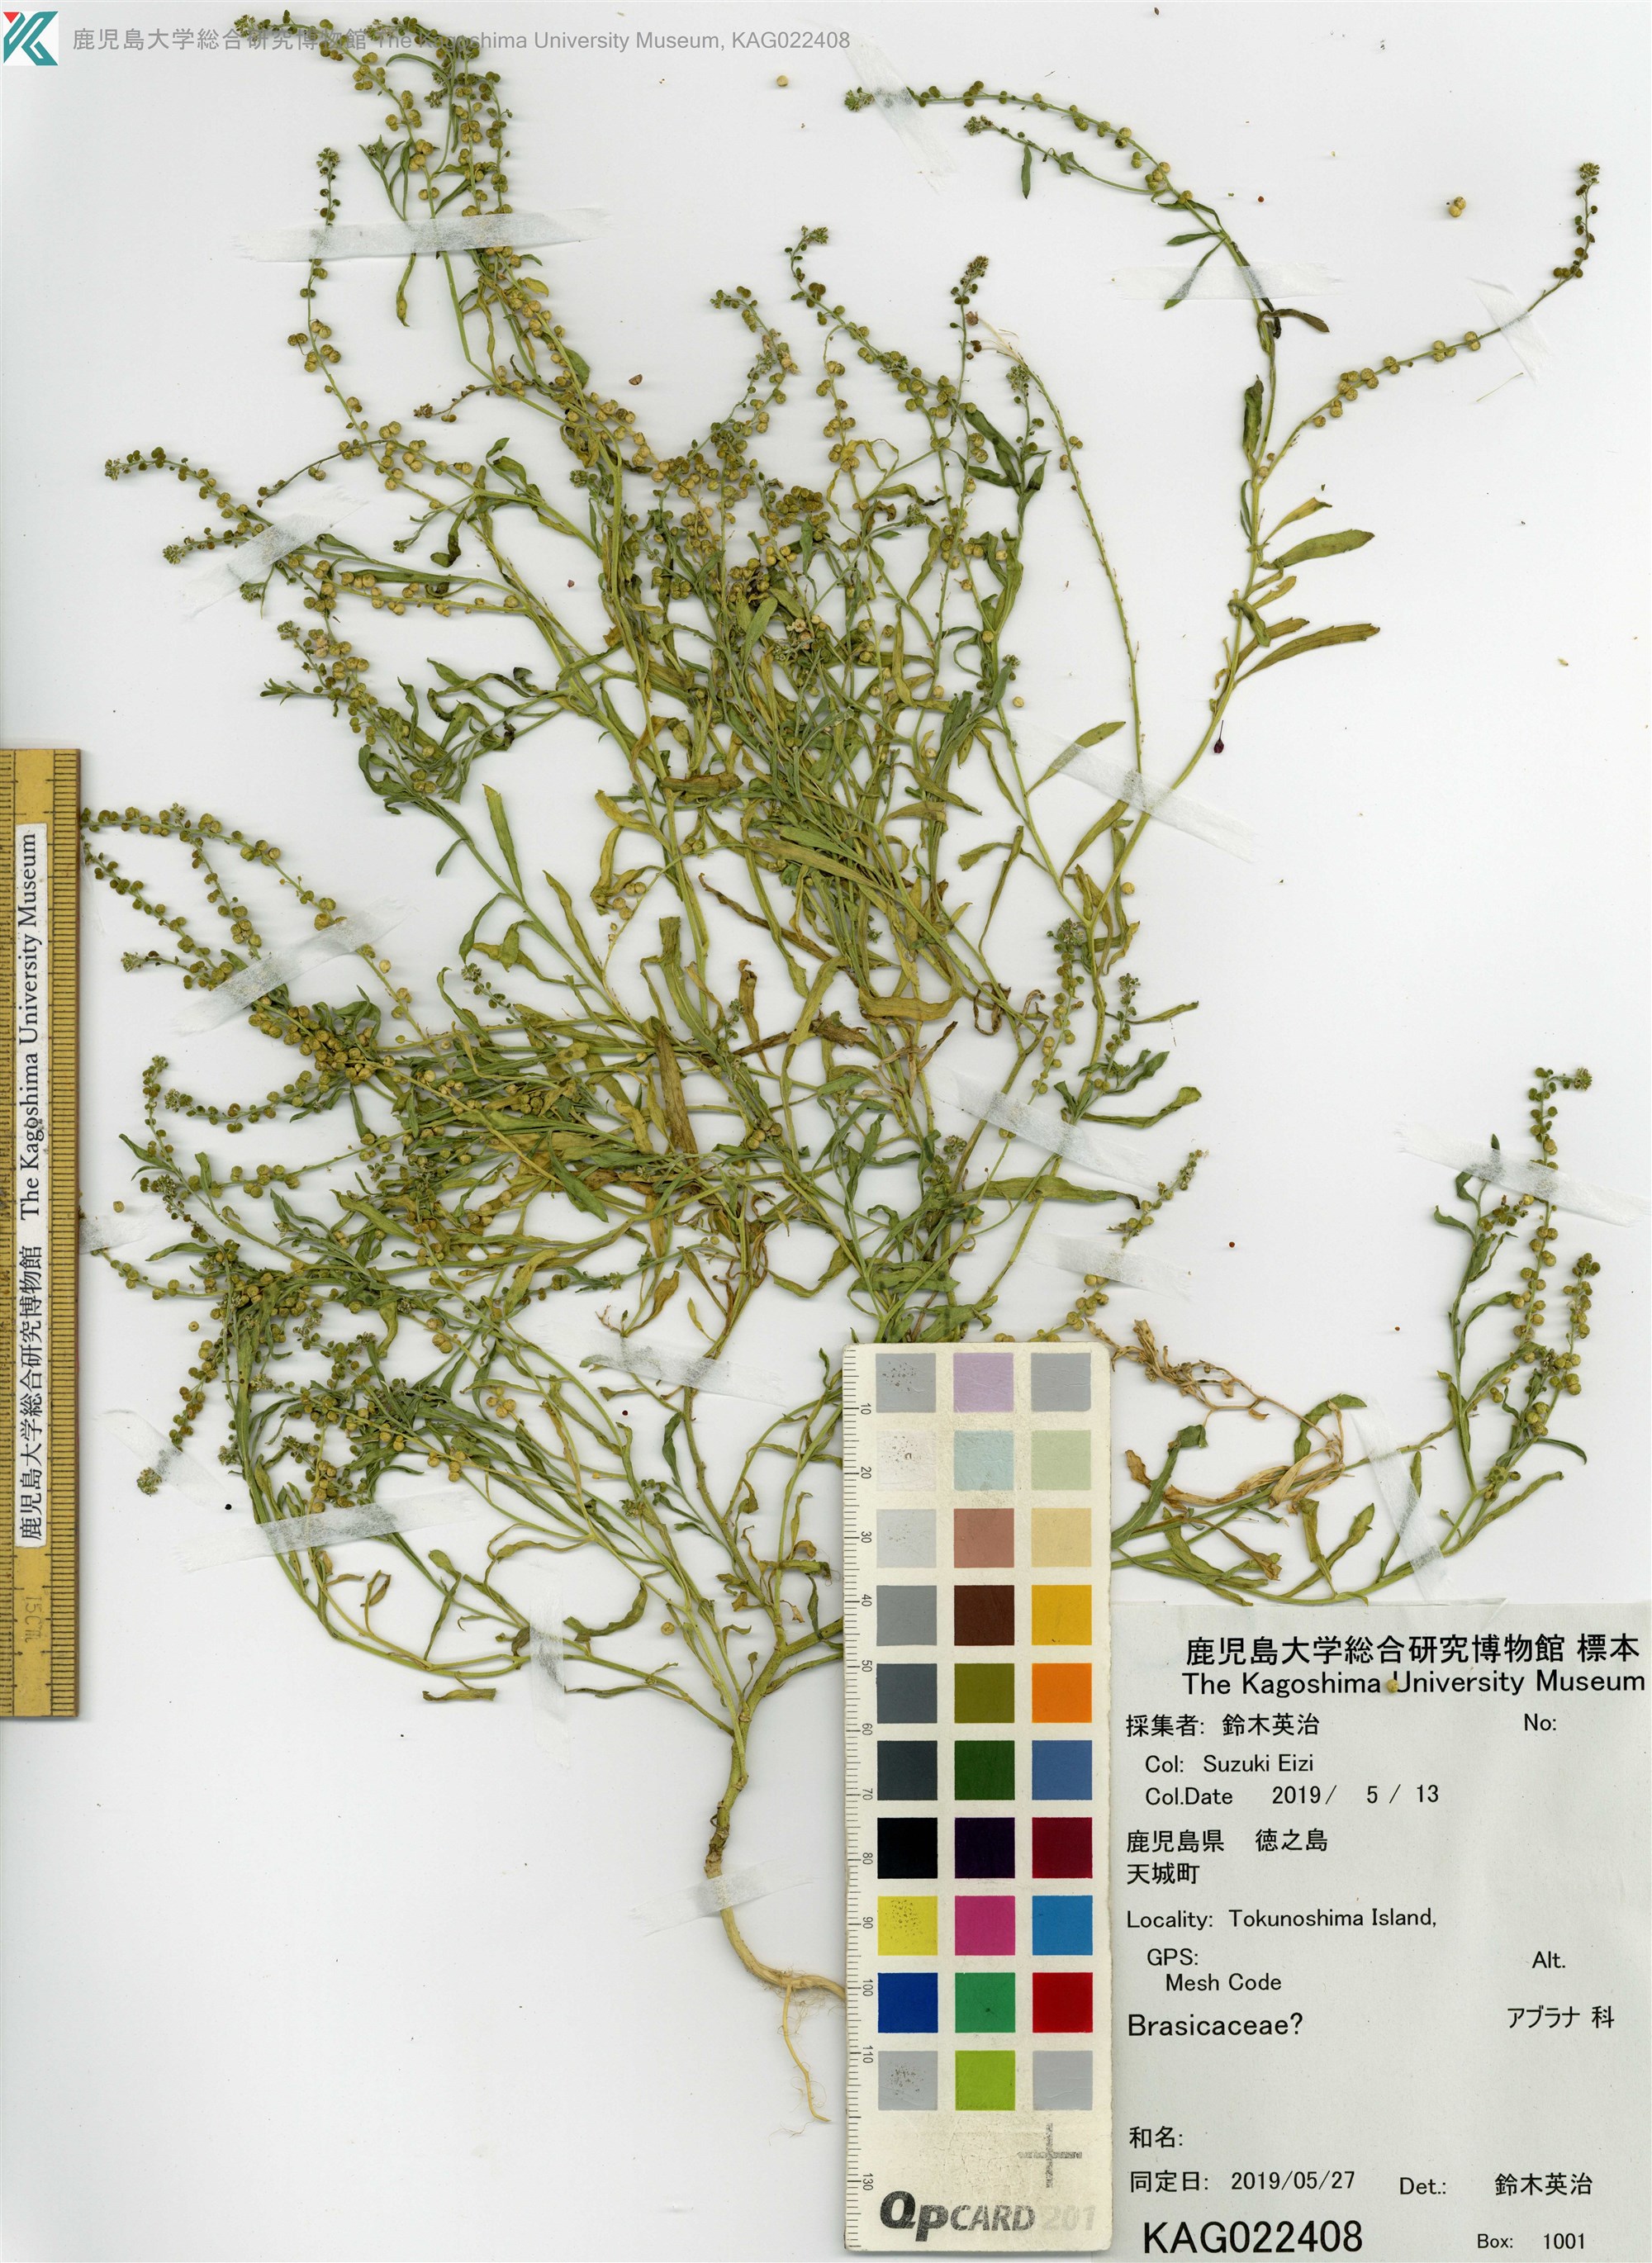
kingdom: Plantae
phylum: Tracheophyta
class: Magnoliopsida
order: Brassicales
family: Brassicaceae
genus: Lepidium
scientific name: Lepidium englerianum
